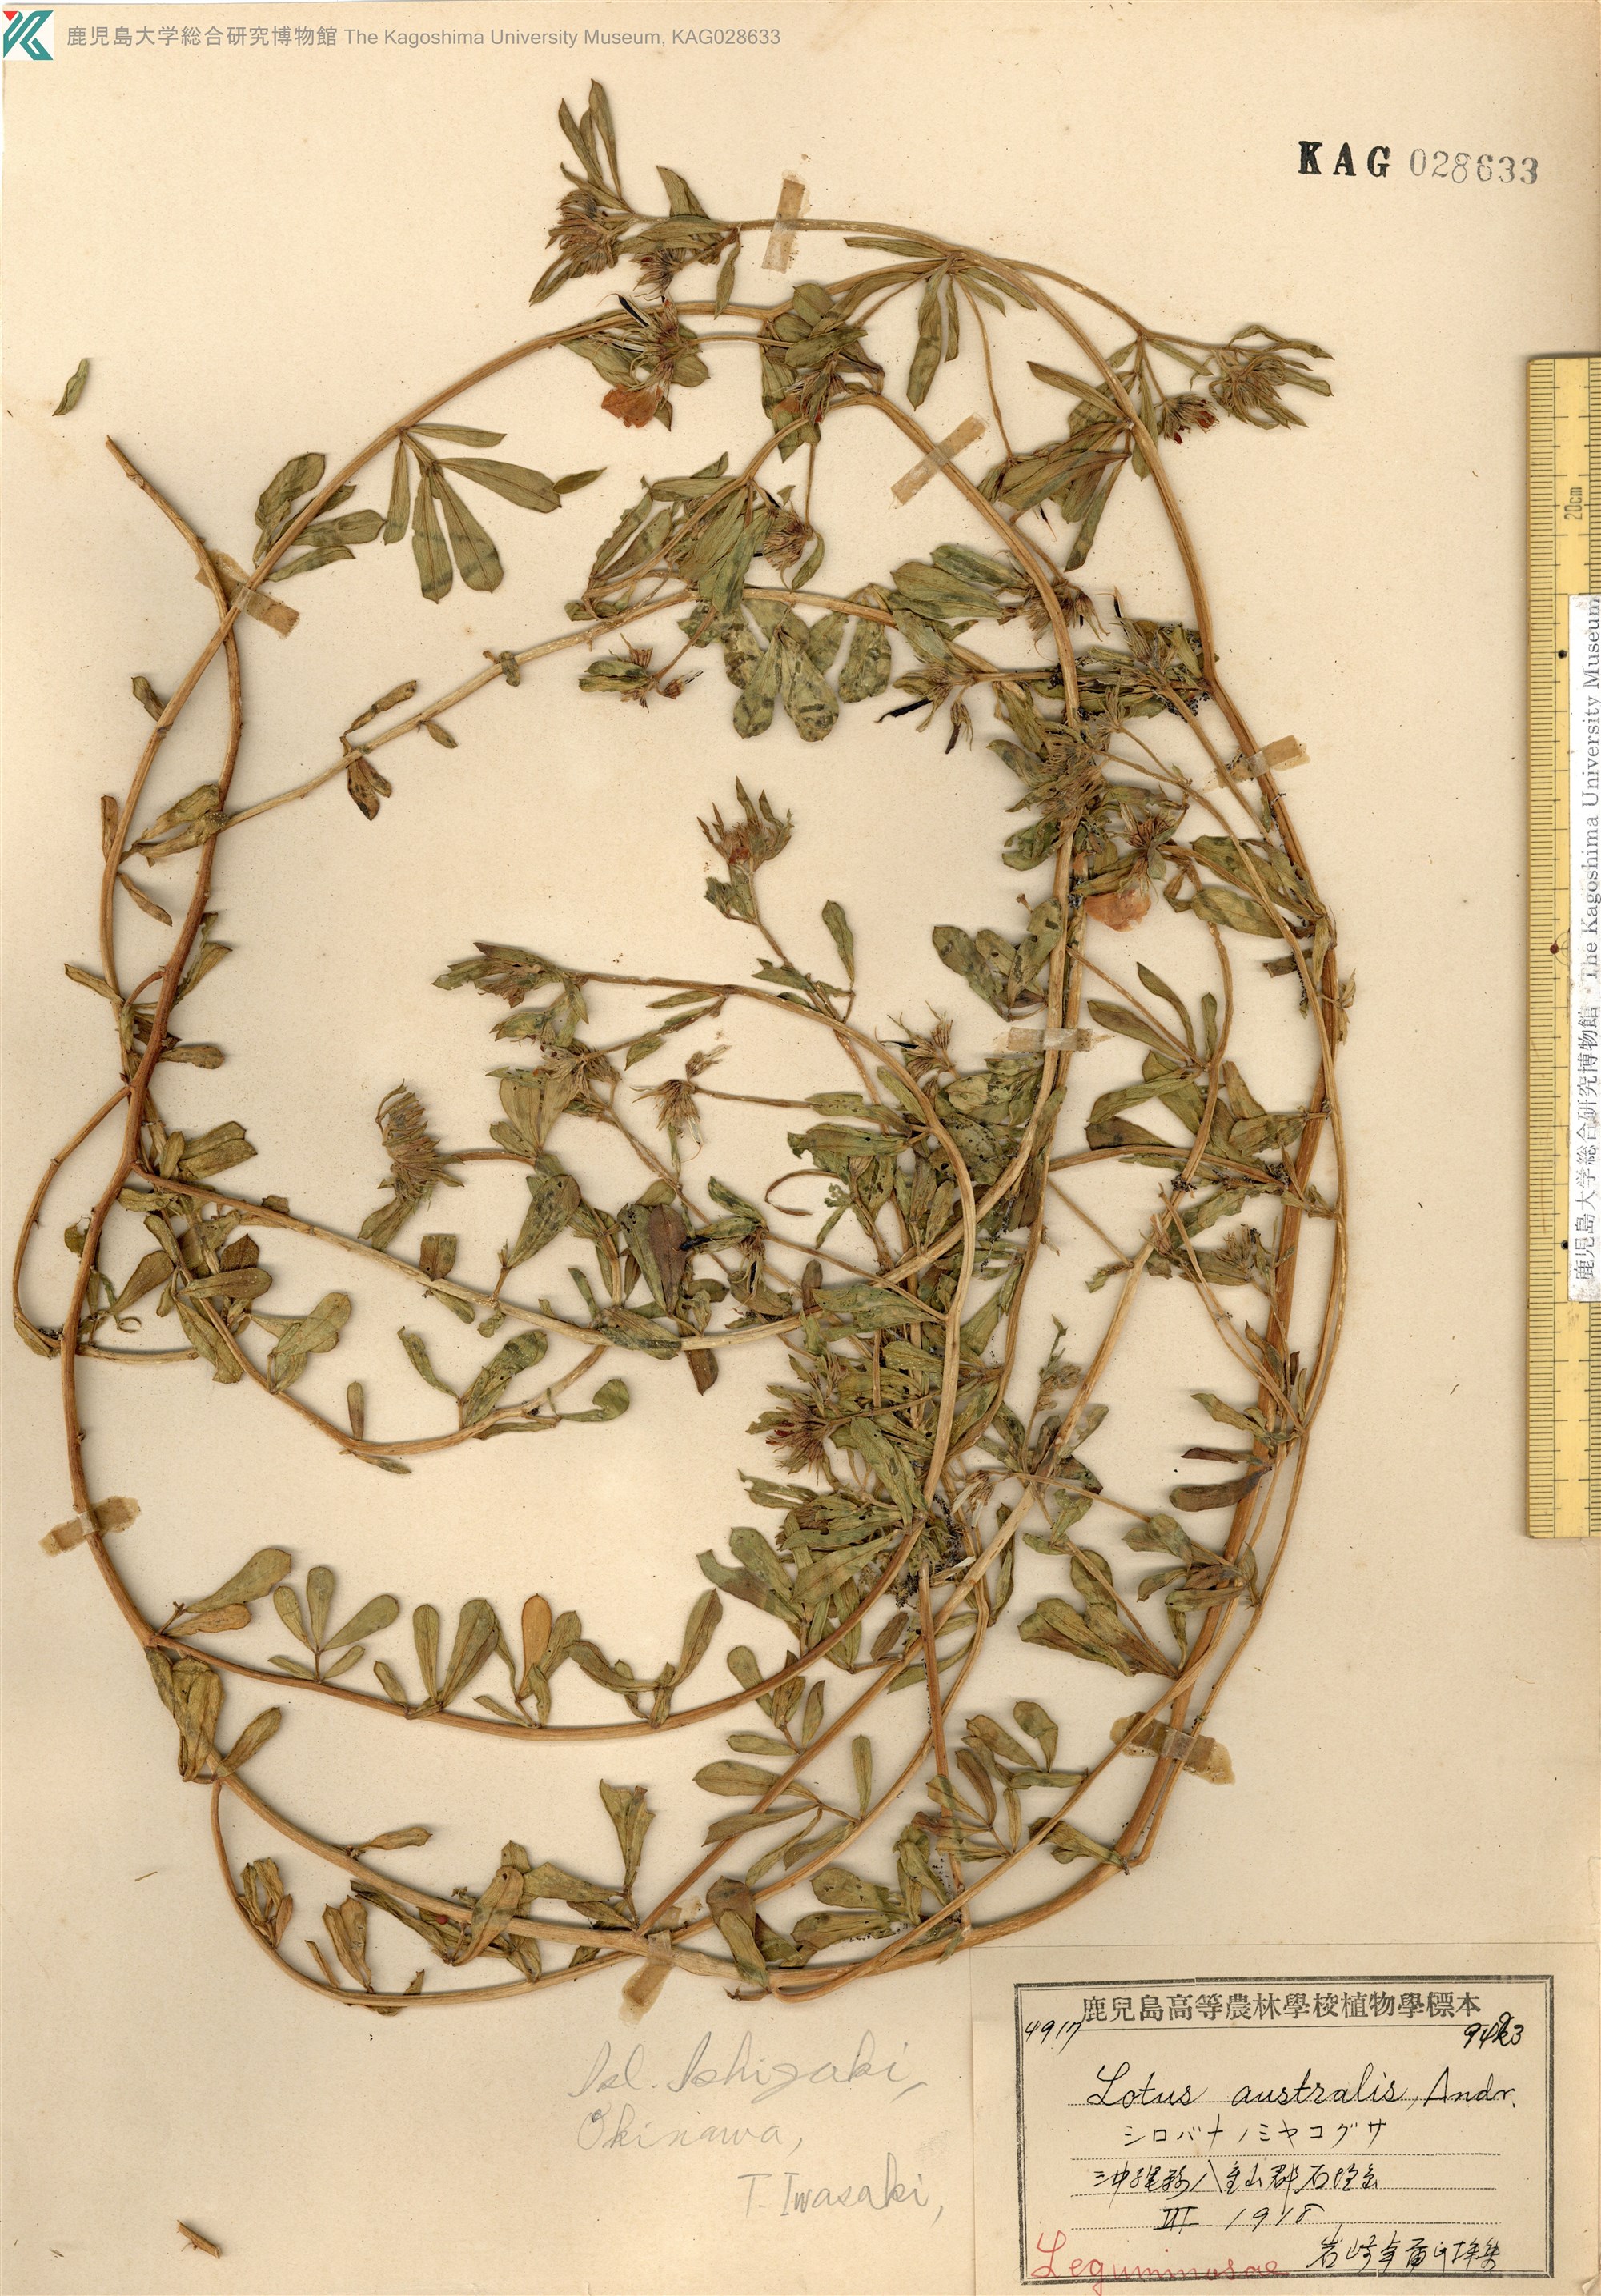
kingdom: Plantae
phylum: Tracheophyta
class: Magnoliopsida
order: Fabales
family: Fabaceae
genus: Lotus
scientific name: Lotus taitungensis
